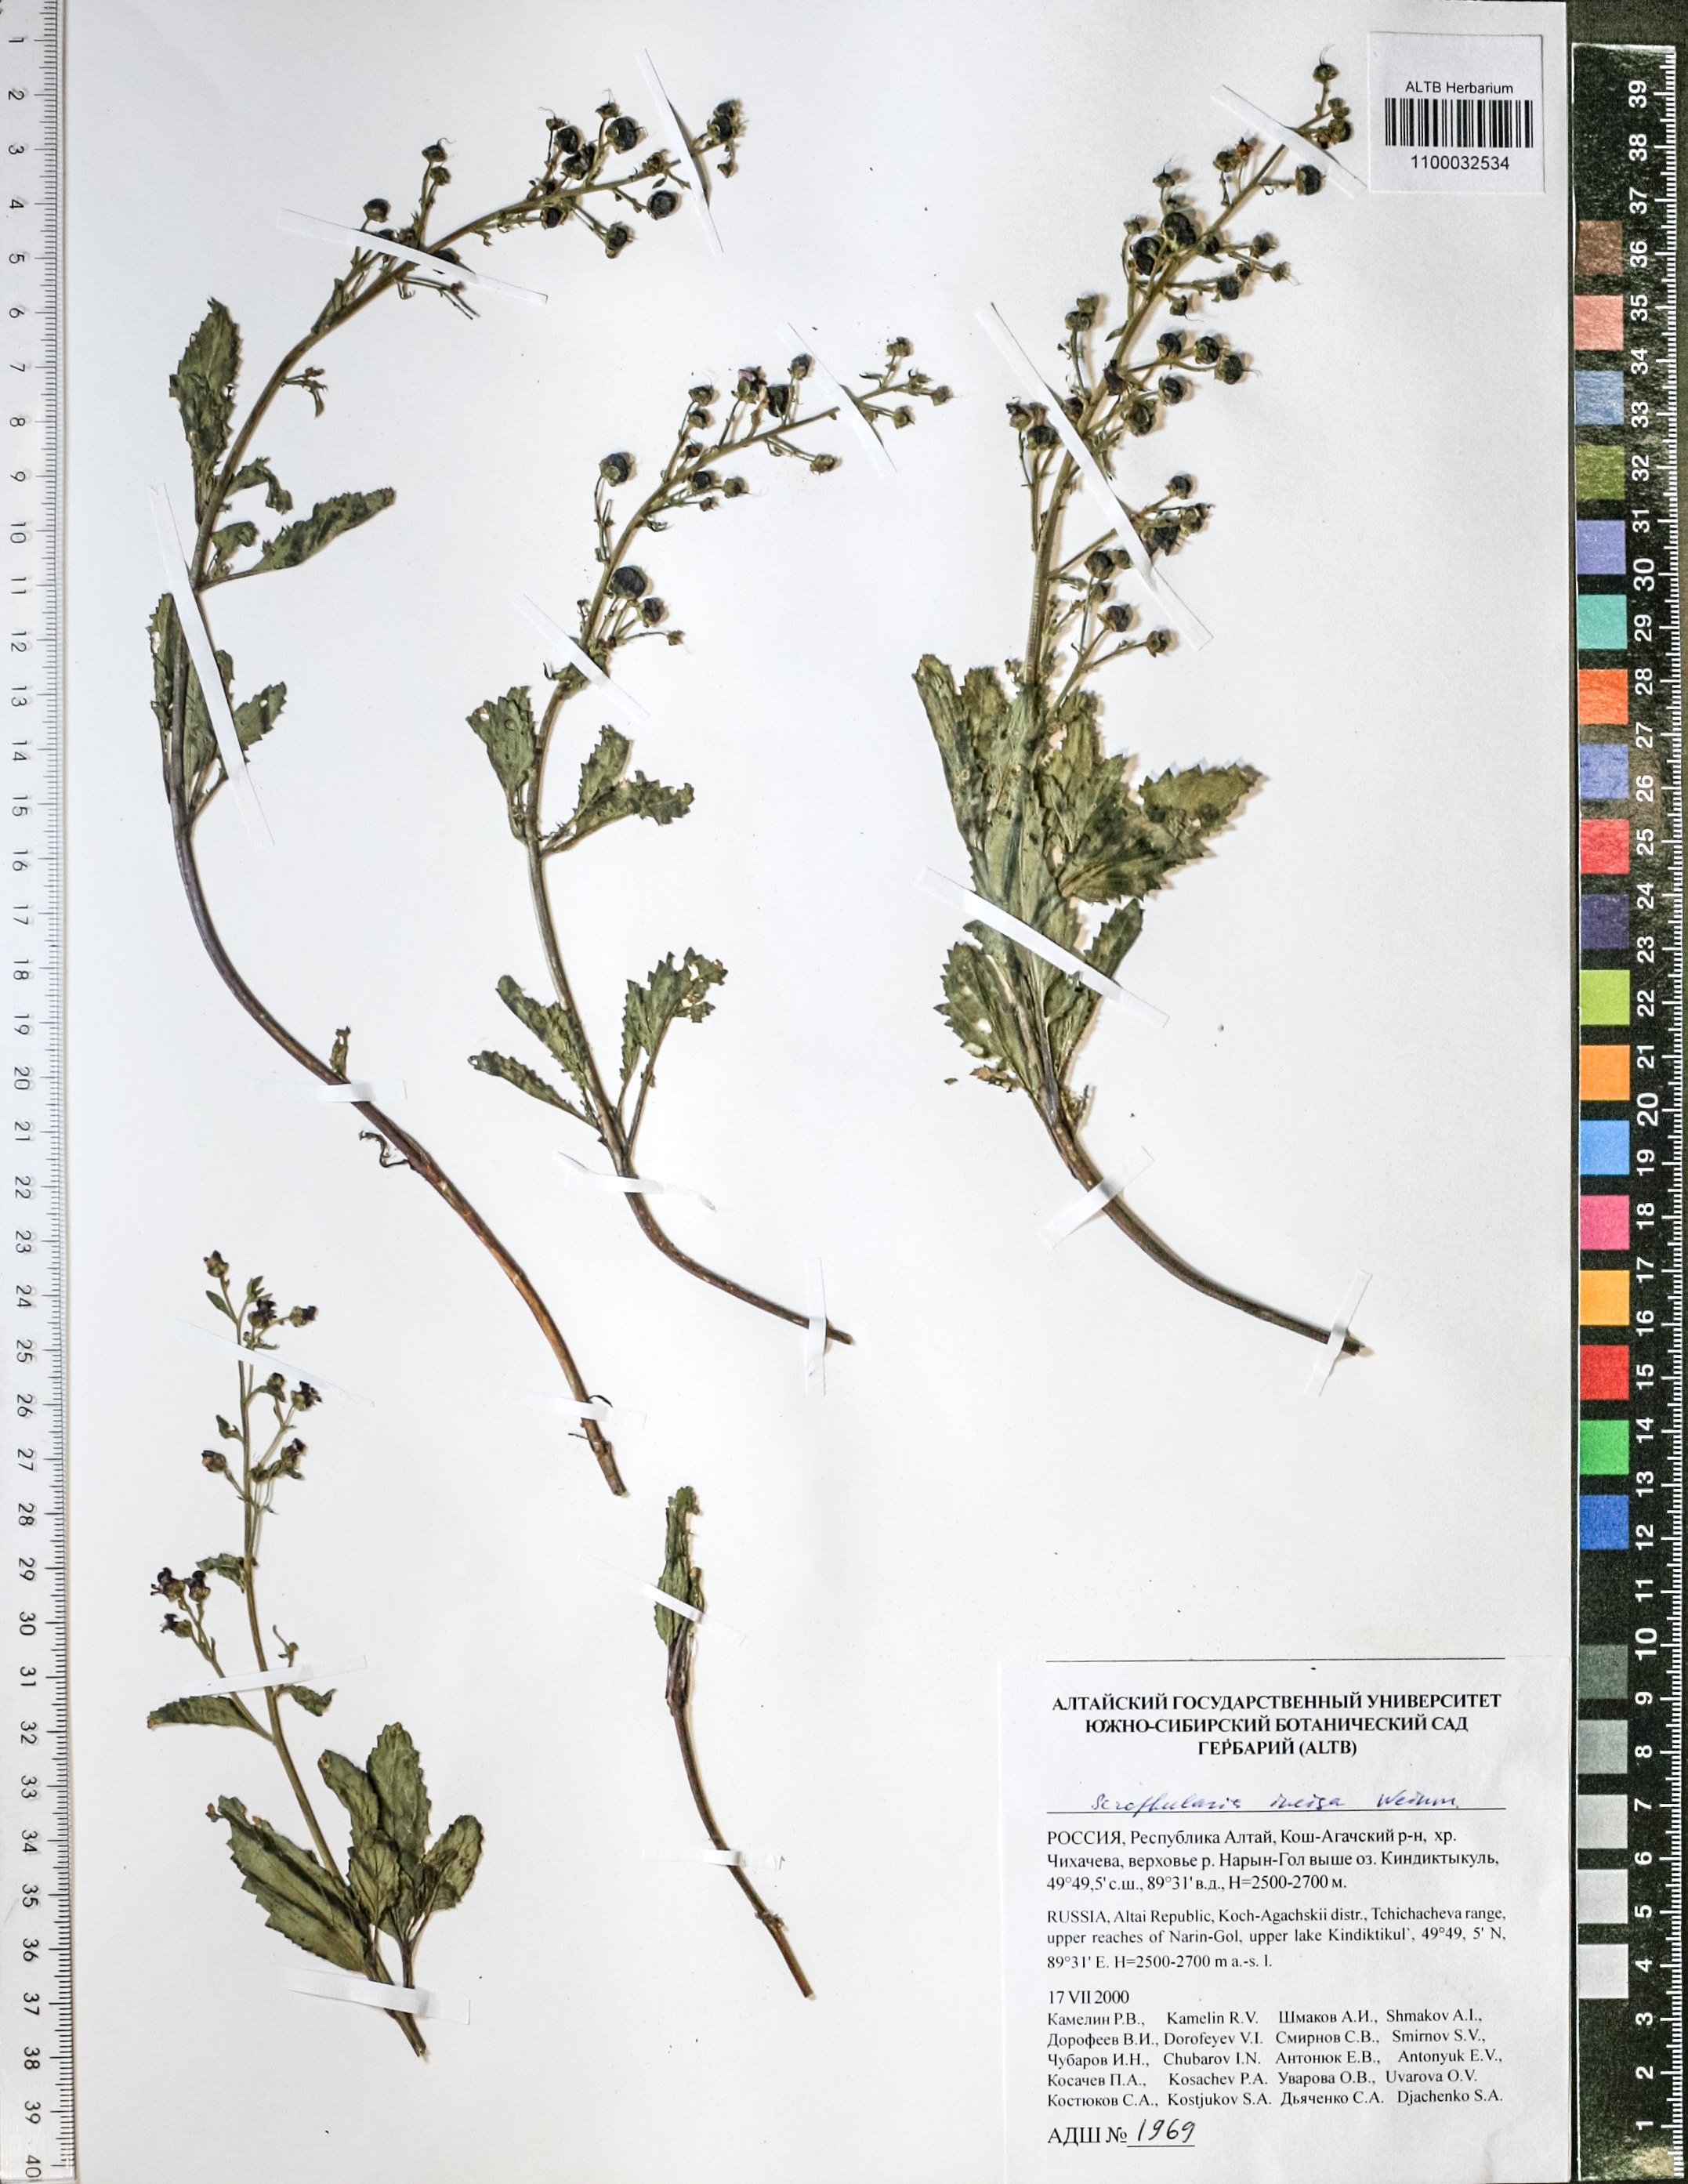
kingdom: Plantae
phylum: Tracheophyta
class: Magnoliopsida
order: Lamiales
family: Scrophulariaceae
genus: Scrophularia
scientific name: Scrophularia incisa
